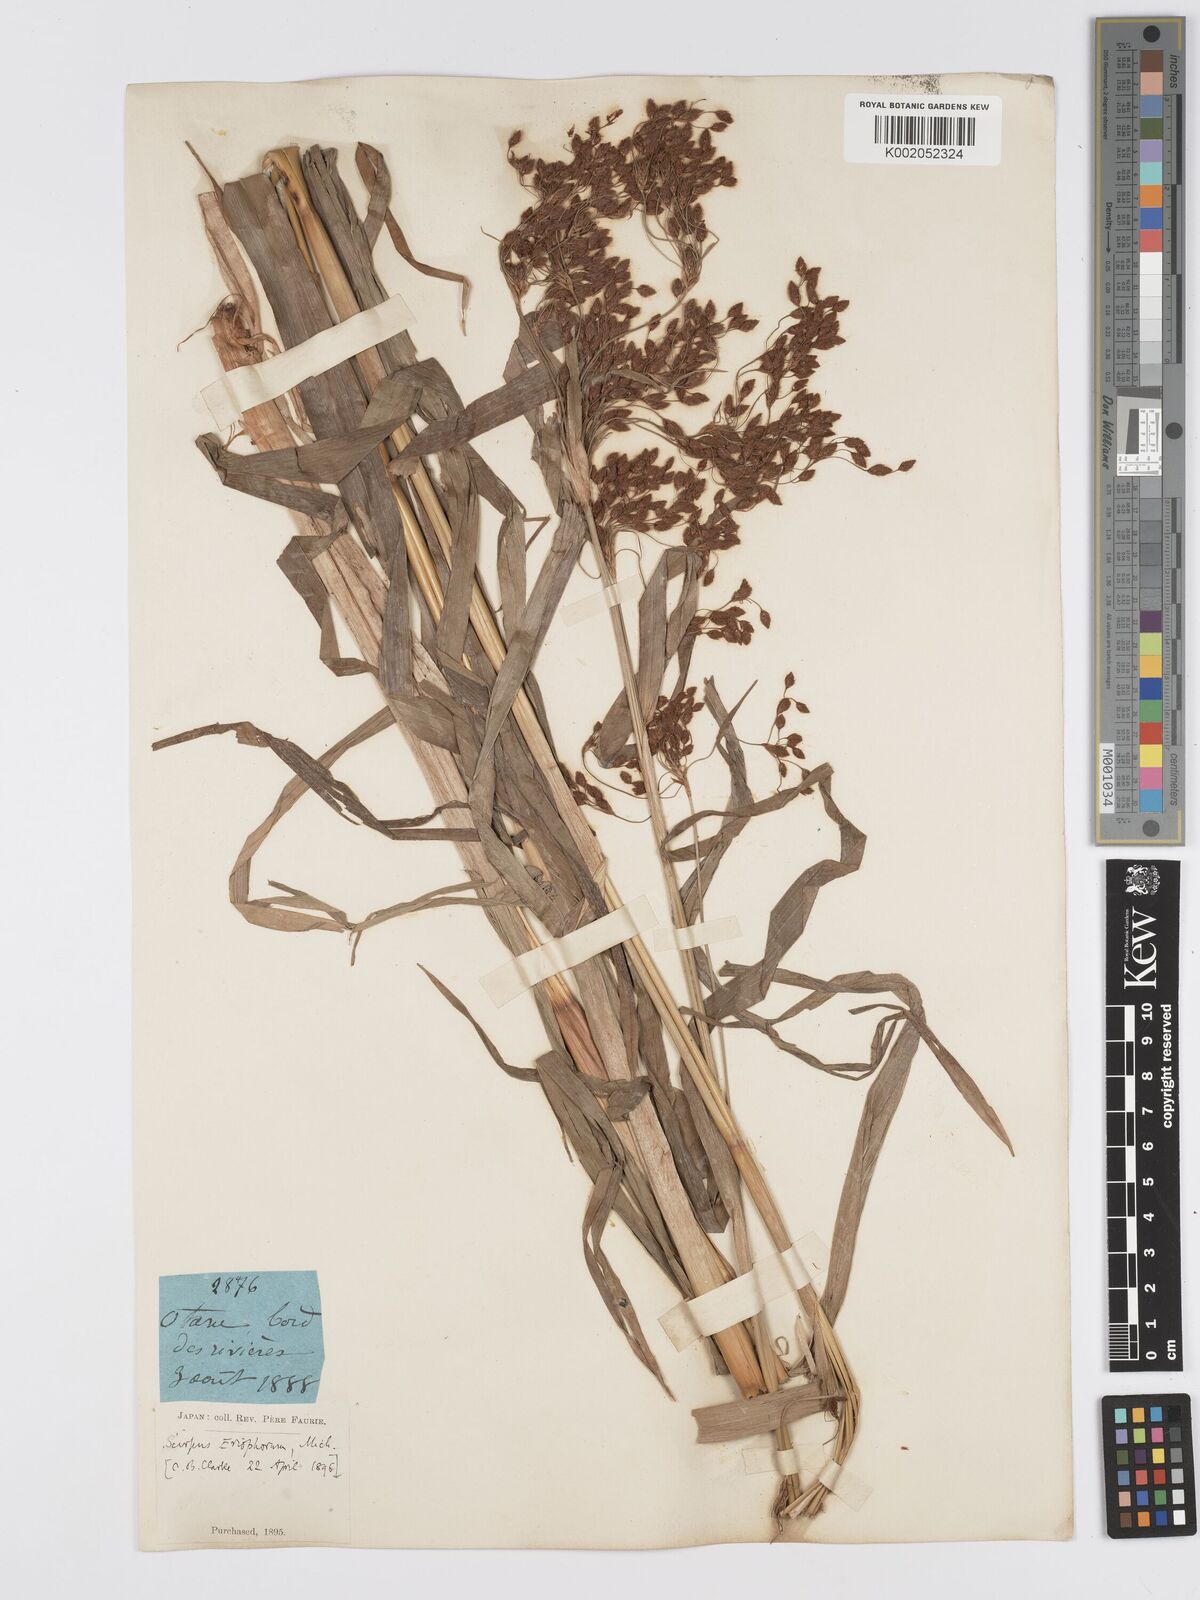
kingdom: Plantae
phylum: Tracheophyta
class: Liliopsida
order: Poales
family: Cyperaceae
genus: Scirpus
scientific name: Scirpus cyperinus
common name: Black-sheathed bulrush
